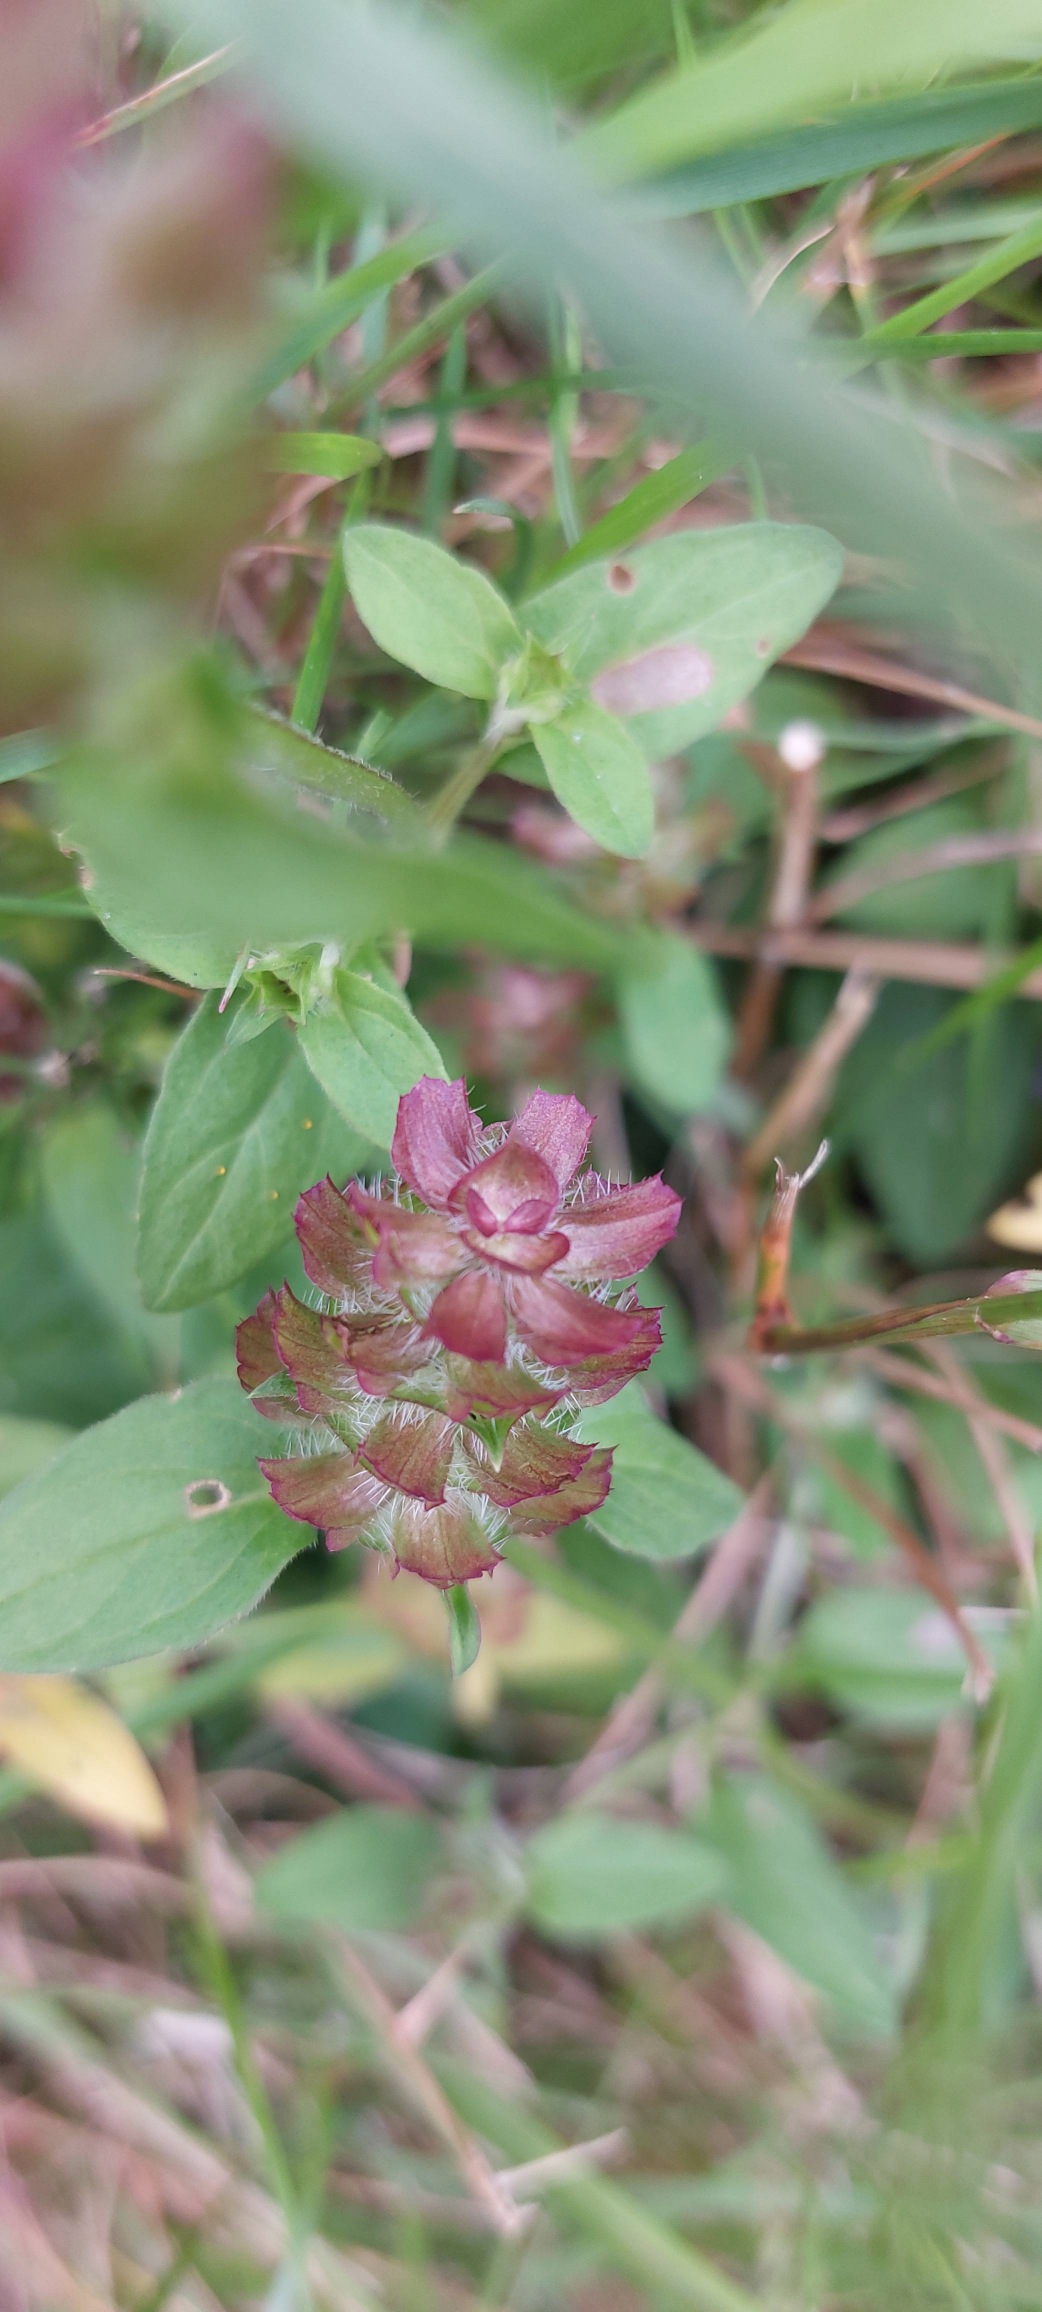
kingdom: Plantae
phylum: Tracheophyta
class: Magnoliopsida
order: Lamiales
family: Lamiaceae
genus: Prunella
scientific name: Prunella vulgaris
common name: Almindelig brunelle
